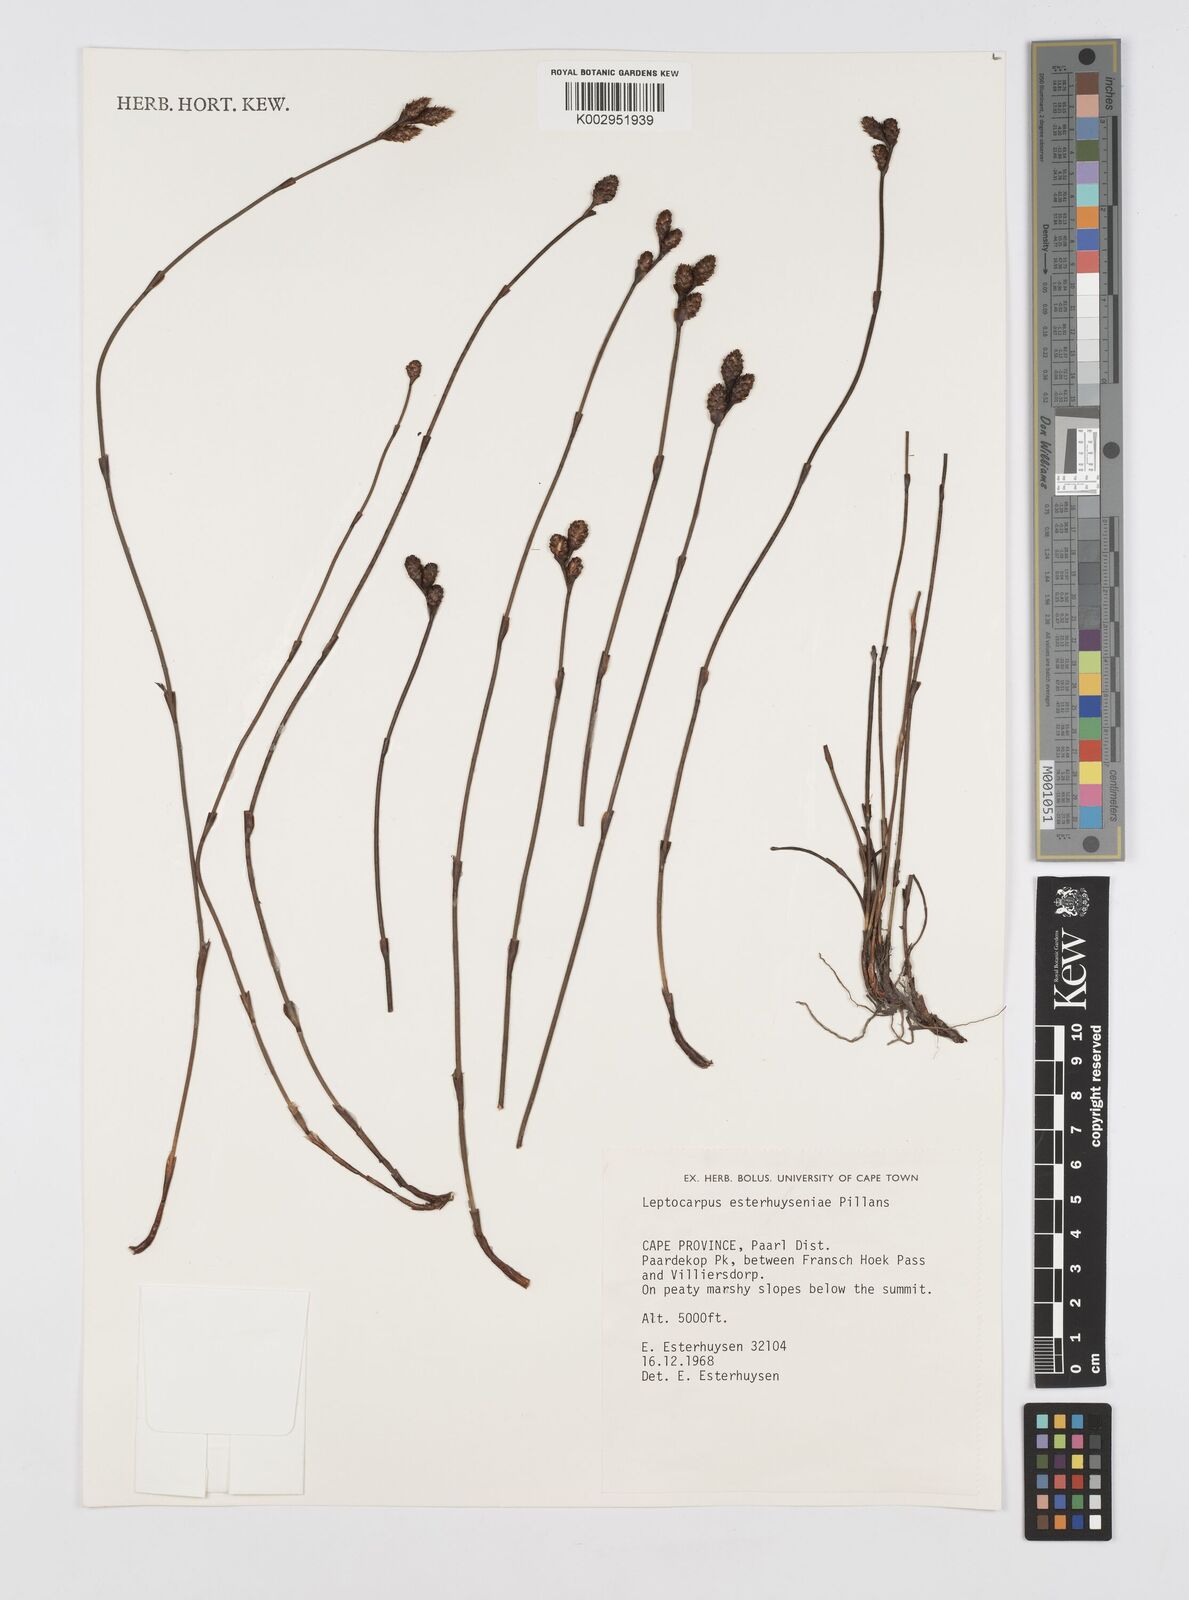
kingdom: Plantae
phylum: Tracheophyta
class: Liliopsida
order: Poales
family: Restionaceae
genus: Restio
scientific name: Restio esterhuyseniae
